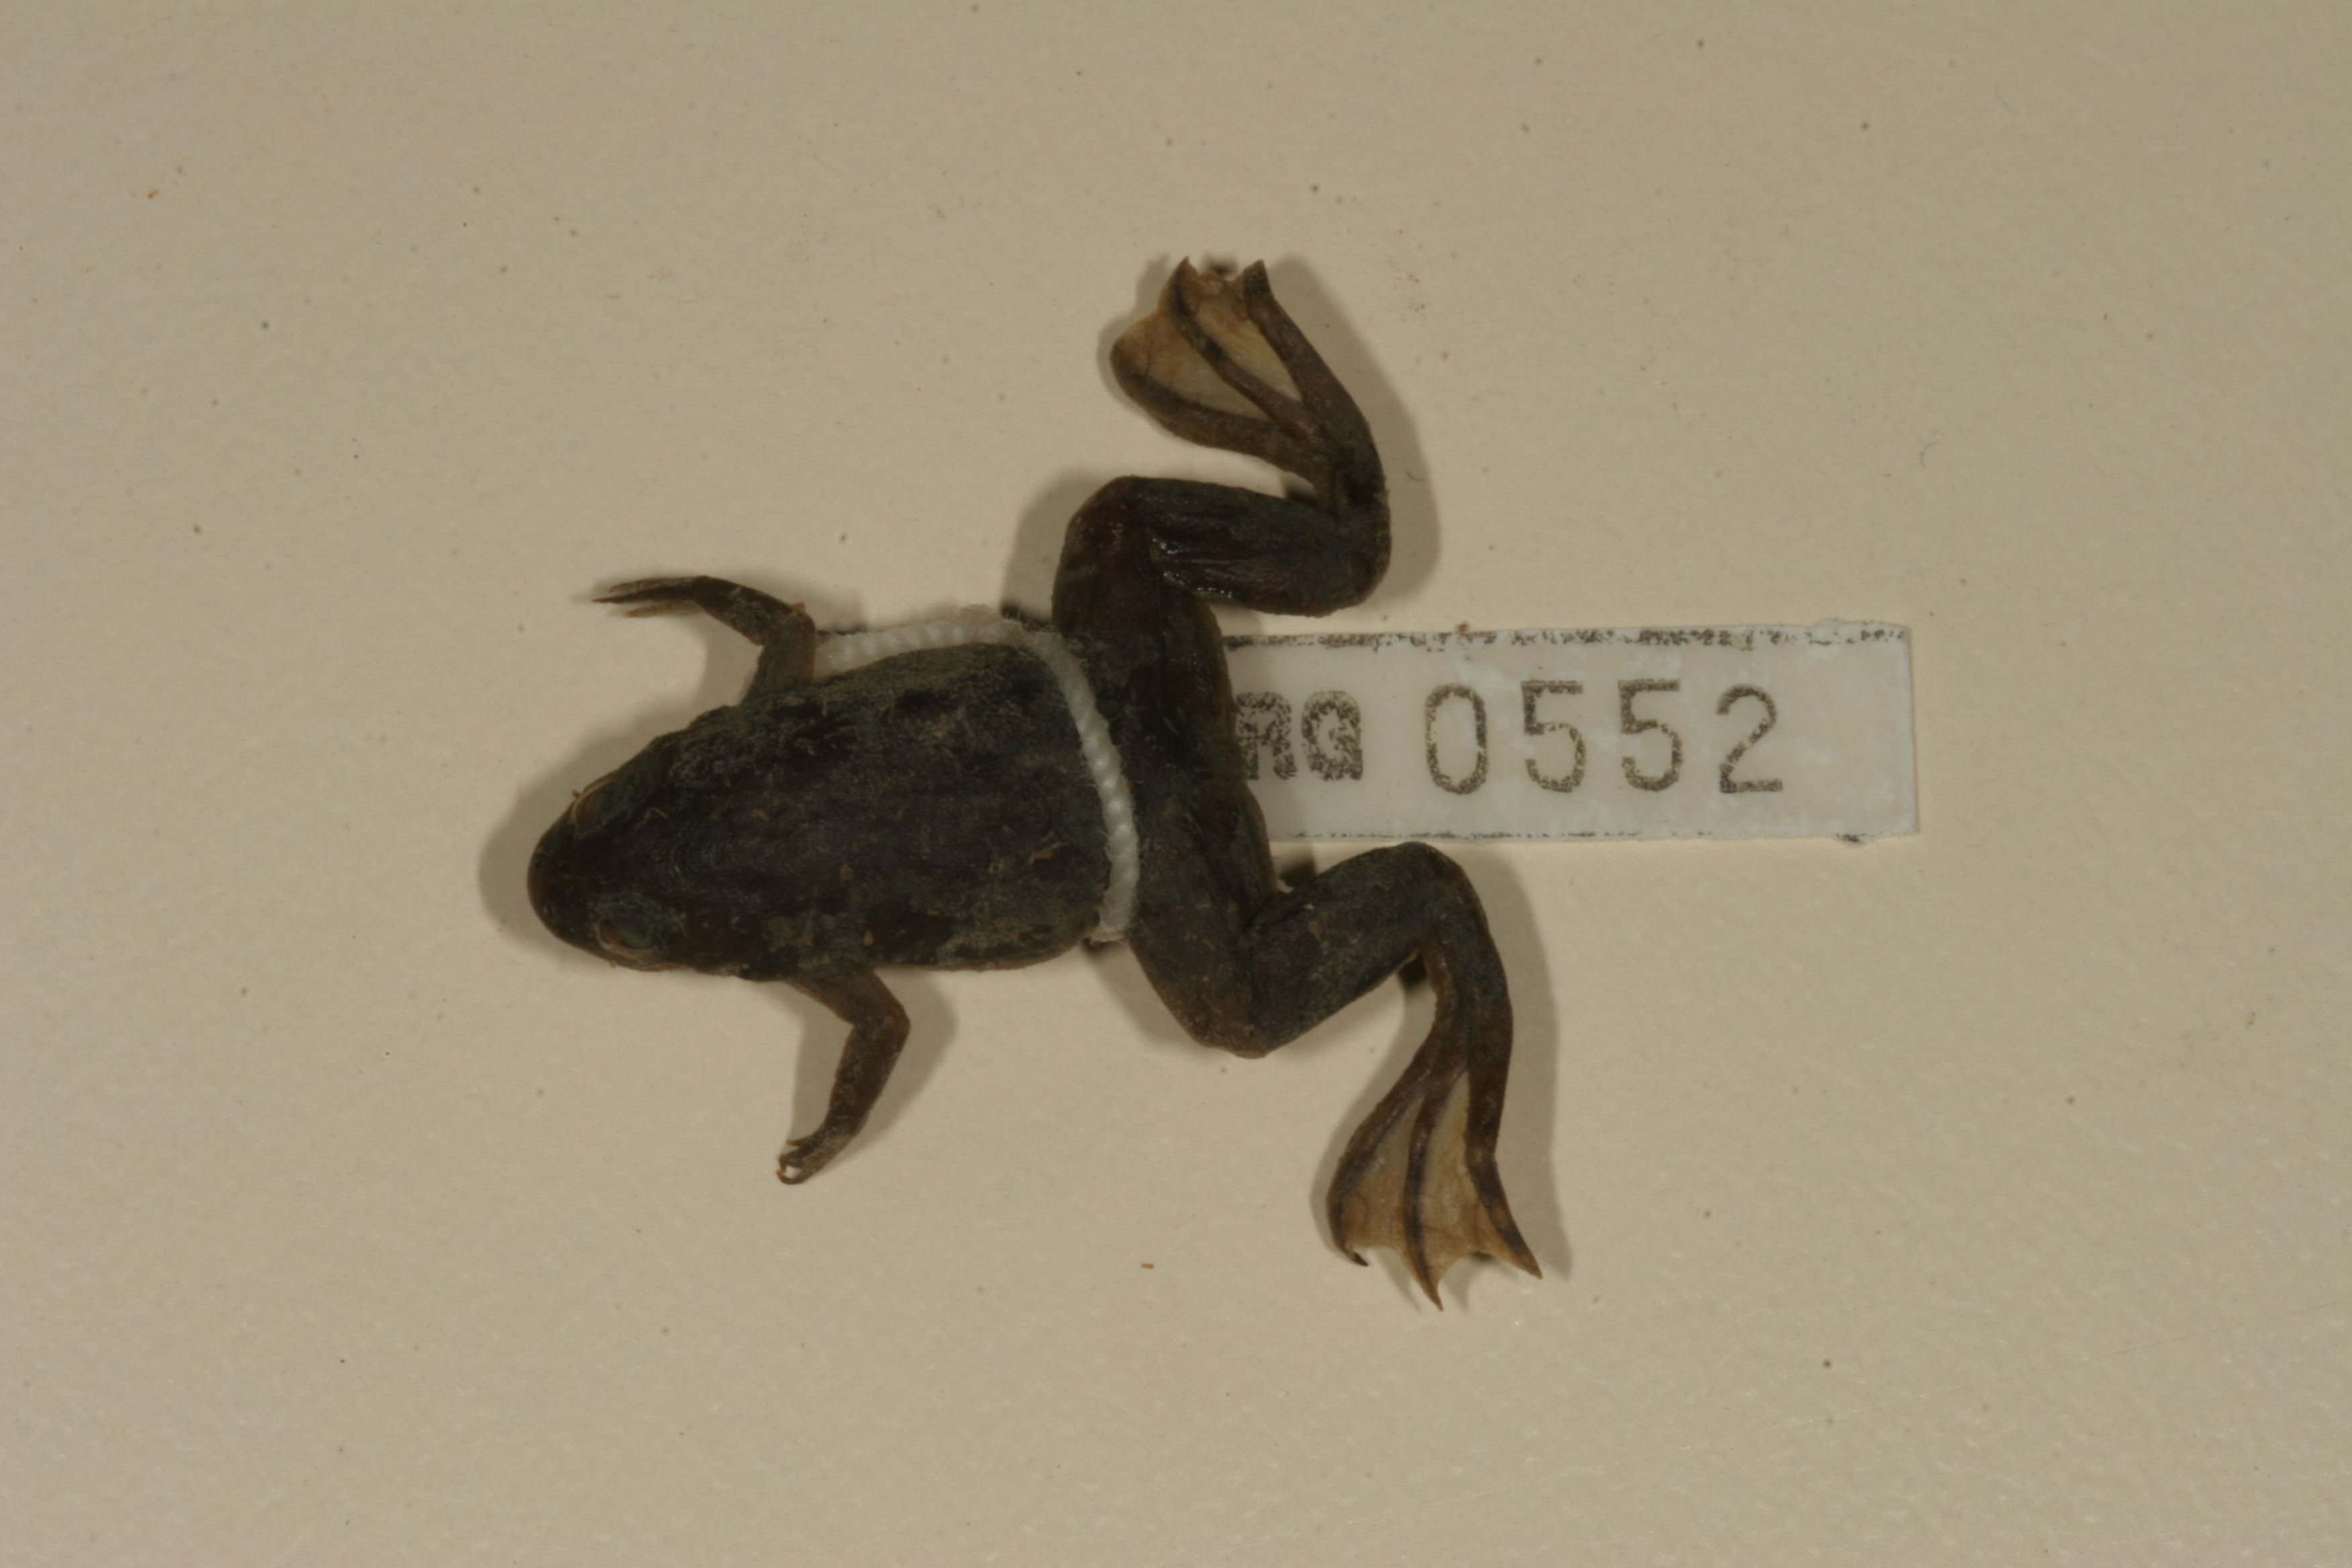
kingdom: Animalia
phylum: Chordata
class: Amphibia
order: Anura
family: Pipidae
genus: Xenopus
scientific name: Xenopus laevis
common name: African clawed frog
